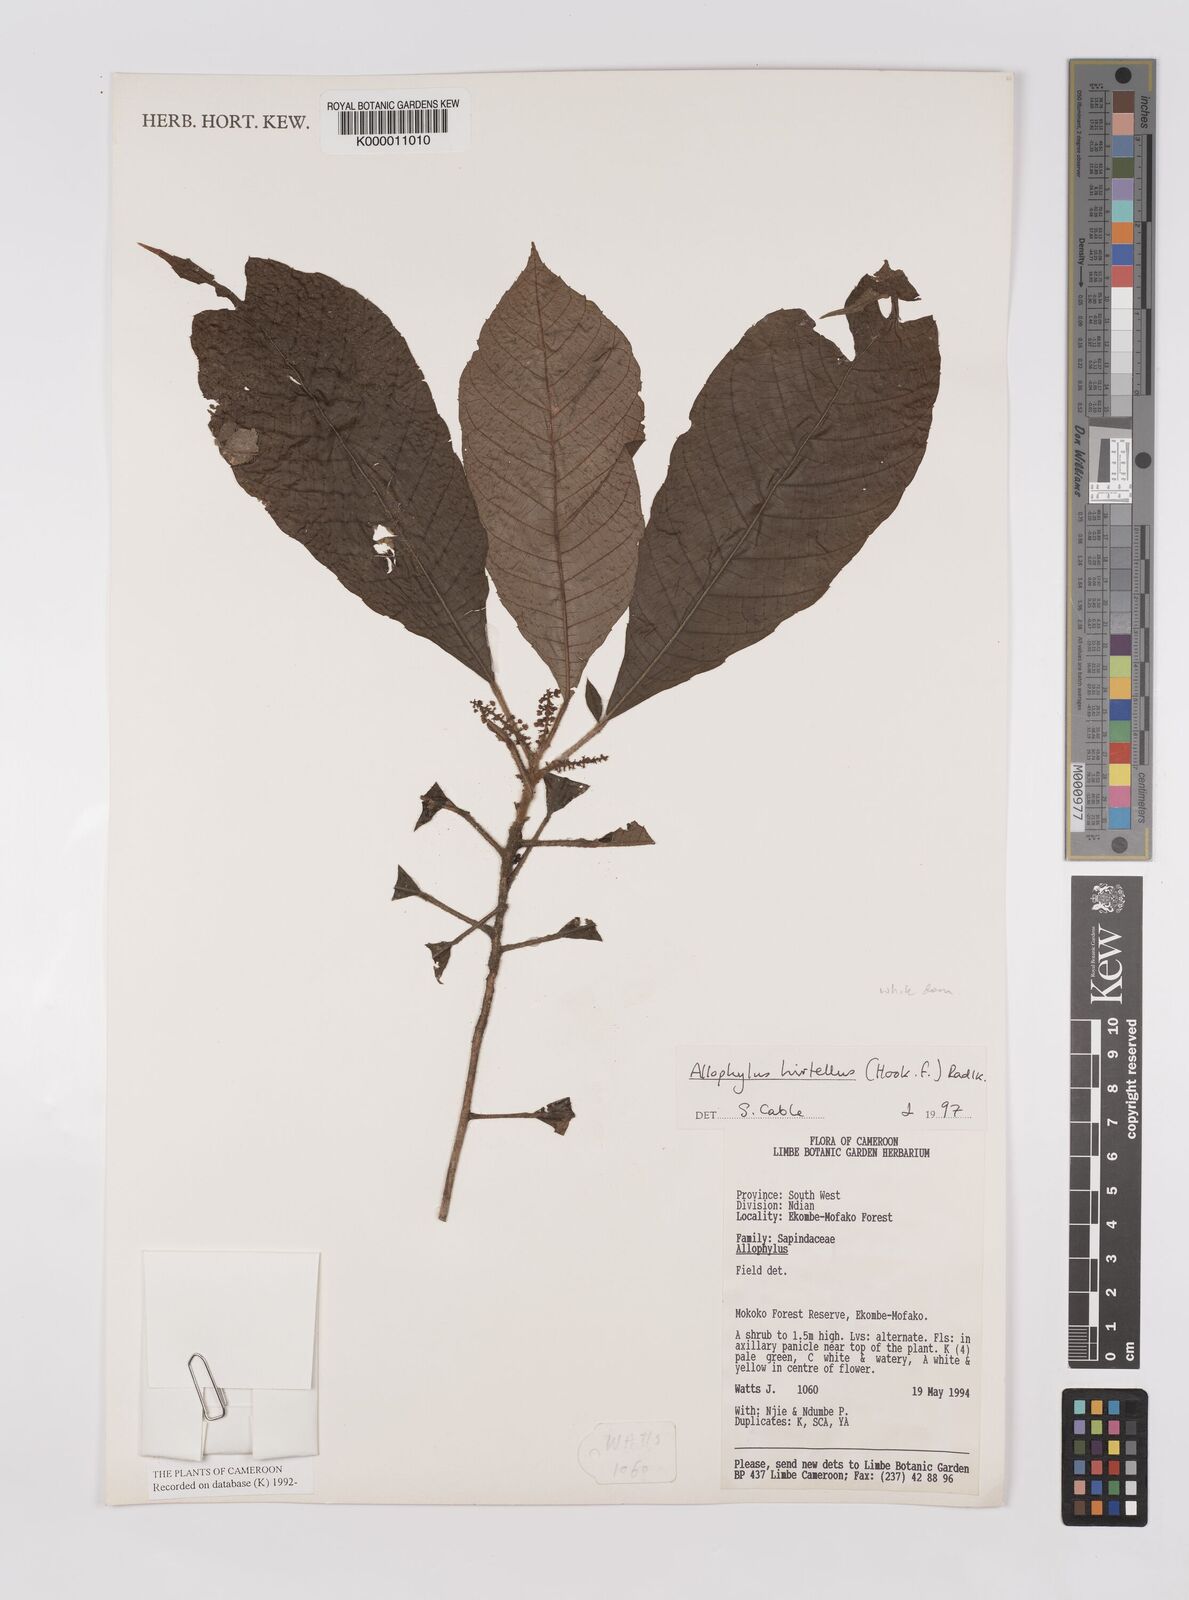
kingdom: Plantae
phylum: Tracheophyta
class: Magnoliopsida
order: Sapindales
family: Sapindaceae
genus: Allophylus
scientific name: Allophylus hirtellus
